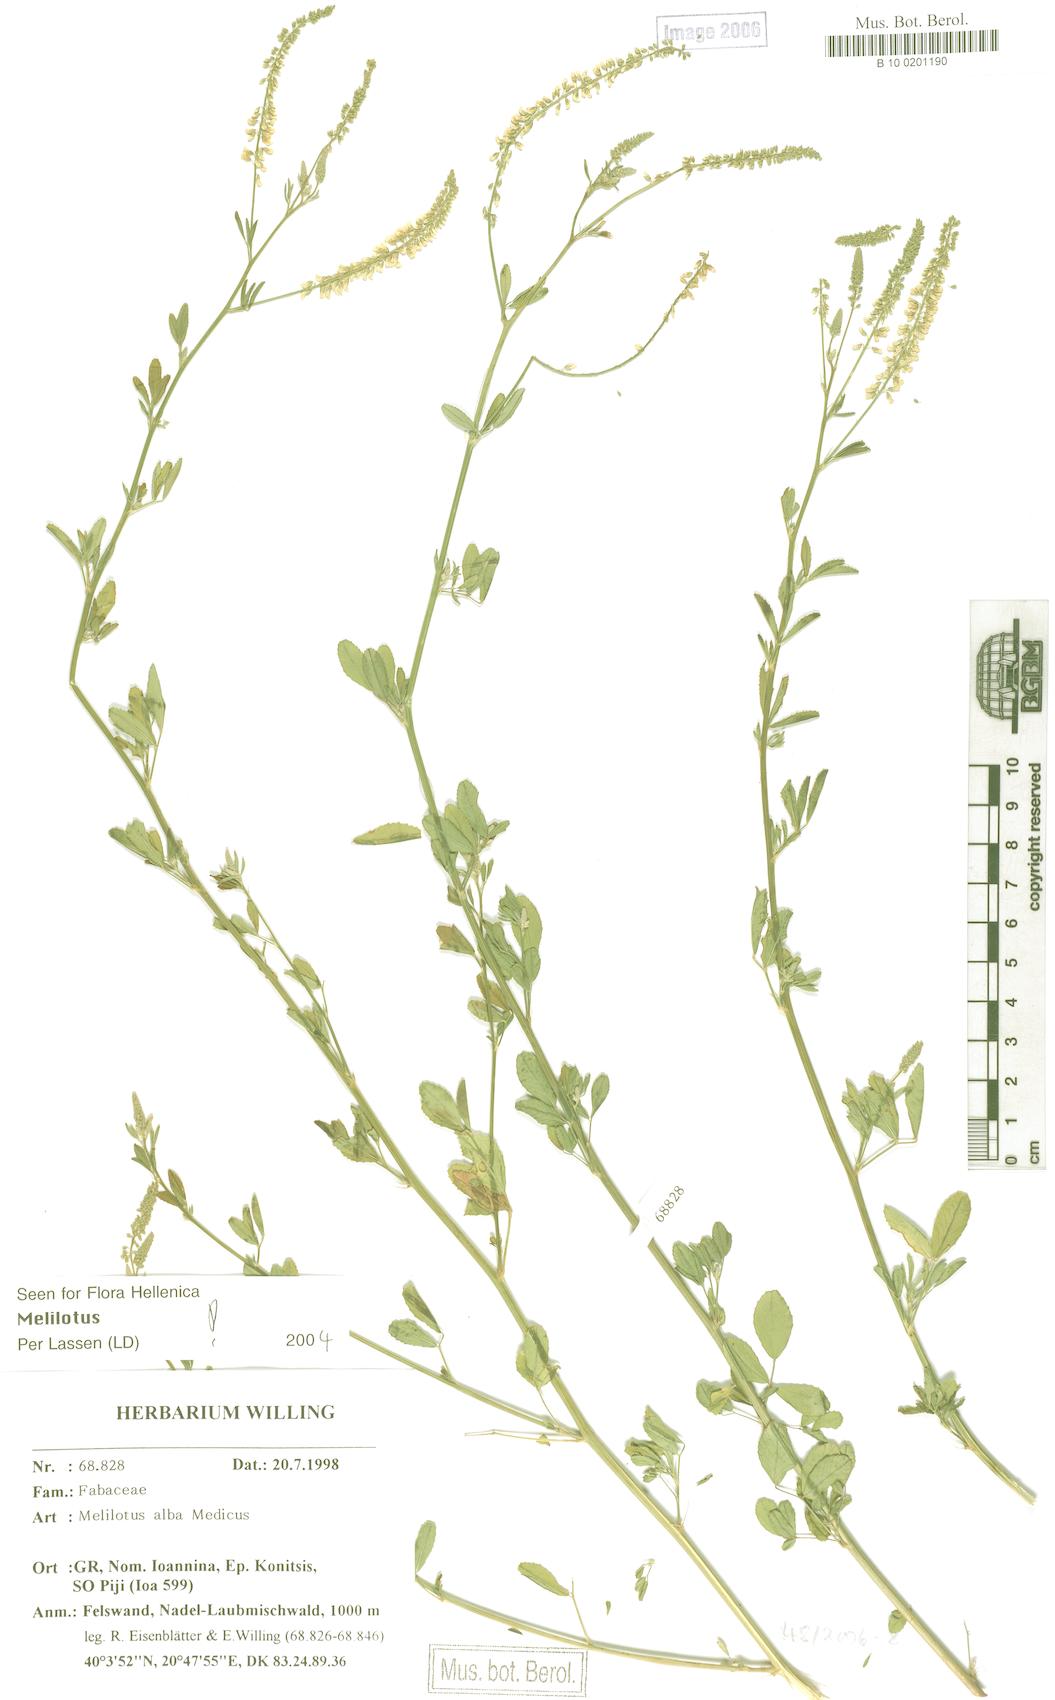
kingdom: Plantae
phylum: Tracheophyta
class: Magnoliopsida
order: Fabales
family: Fabaceae
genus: Melilotus
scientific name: Melilotus albus
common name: White melilot
